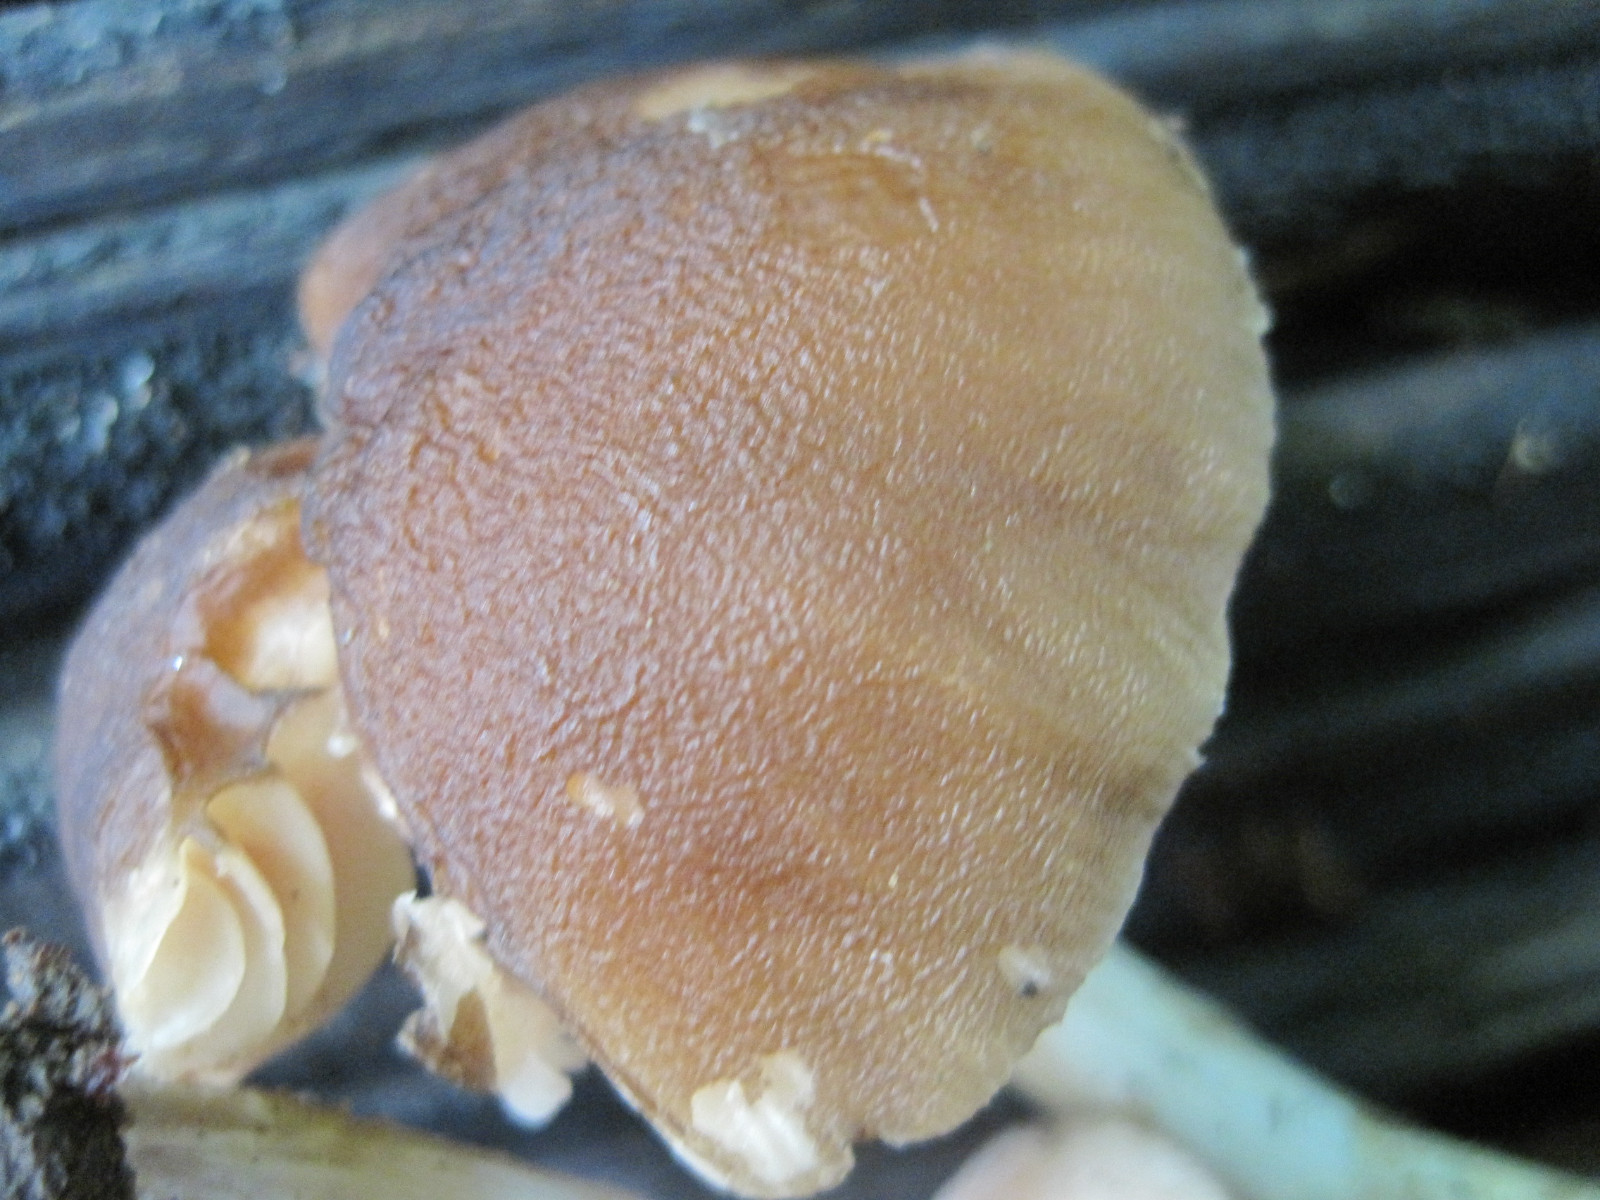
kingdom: Fungi
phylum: Basidiomycota
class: Agaricomycetes
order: Agaricales
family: Pluteaceae
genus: Pluteus
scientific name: Pluteus phlebophorus
